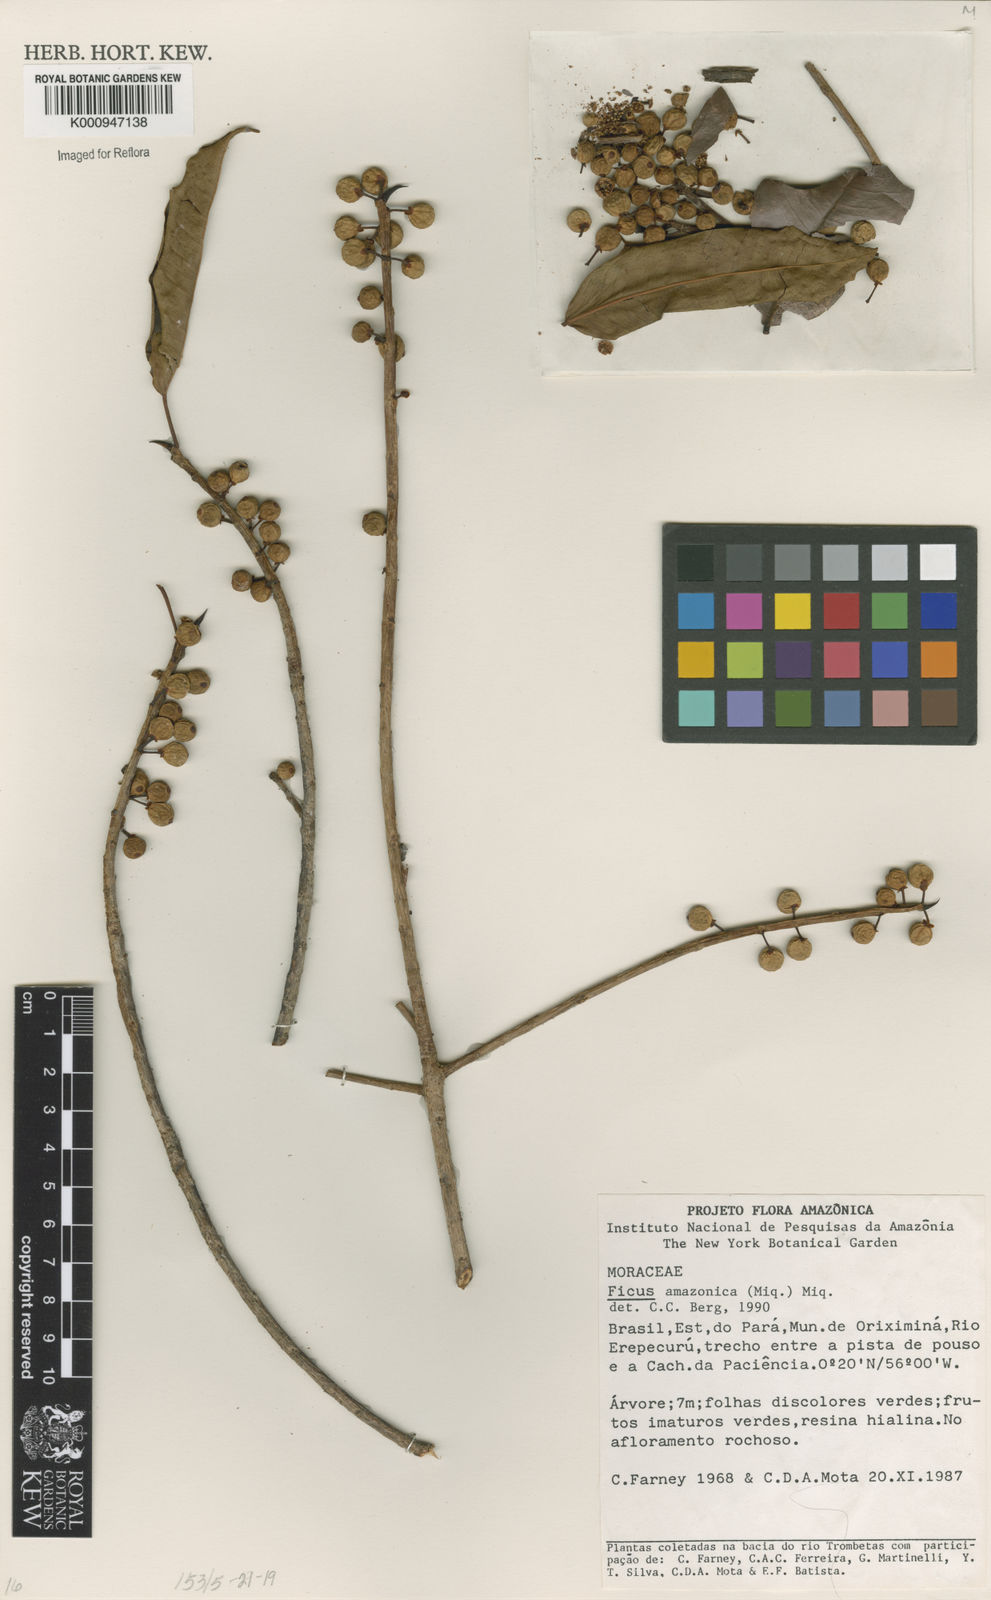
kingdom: Plantae
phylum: Tracheophyta
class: Magnoliopsida
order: Rosales
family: Moraceae
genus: Ficus
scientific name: Ficus amazonica
